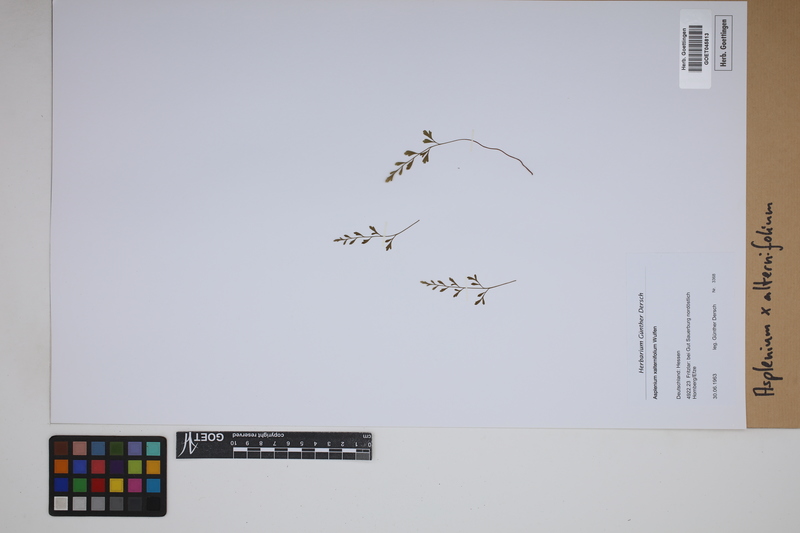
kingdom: Plantae
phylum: Tracheophyta
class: Polypodiopsida
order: Polypodiales
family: Aspleniaceae
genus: Asplenium
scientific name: Asplenium alternifolium
